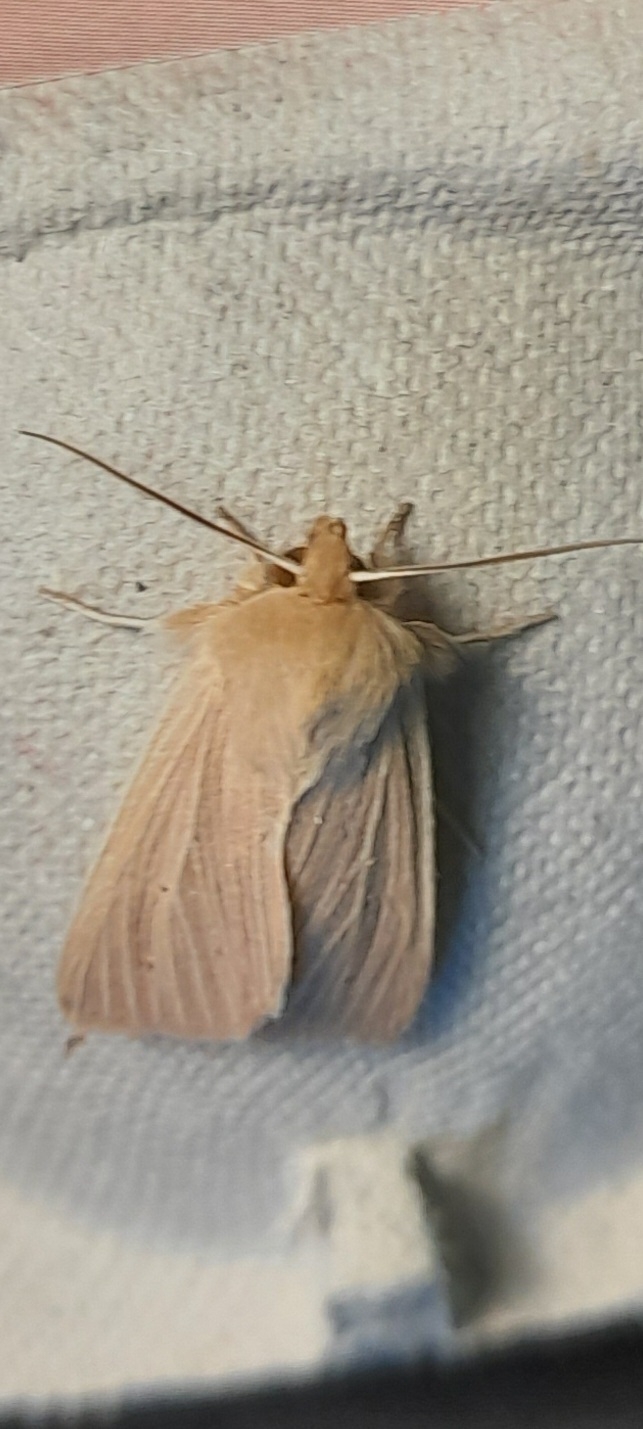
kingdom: Animalia
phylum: Arthropoda
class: Insecta
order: Lepidoptera
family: Noctuidae
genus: Mythimna
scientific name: Mythimna pallens
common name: Halmugle
